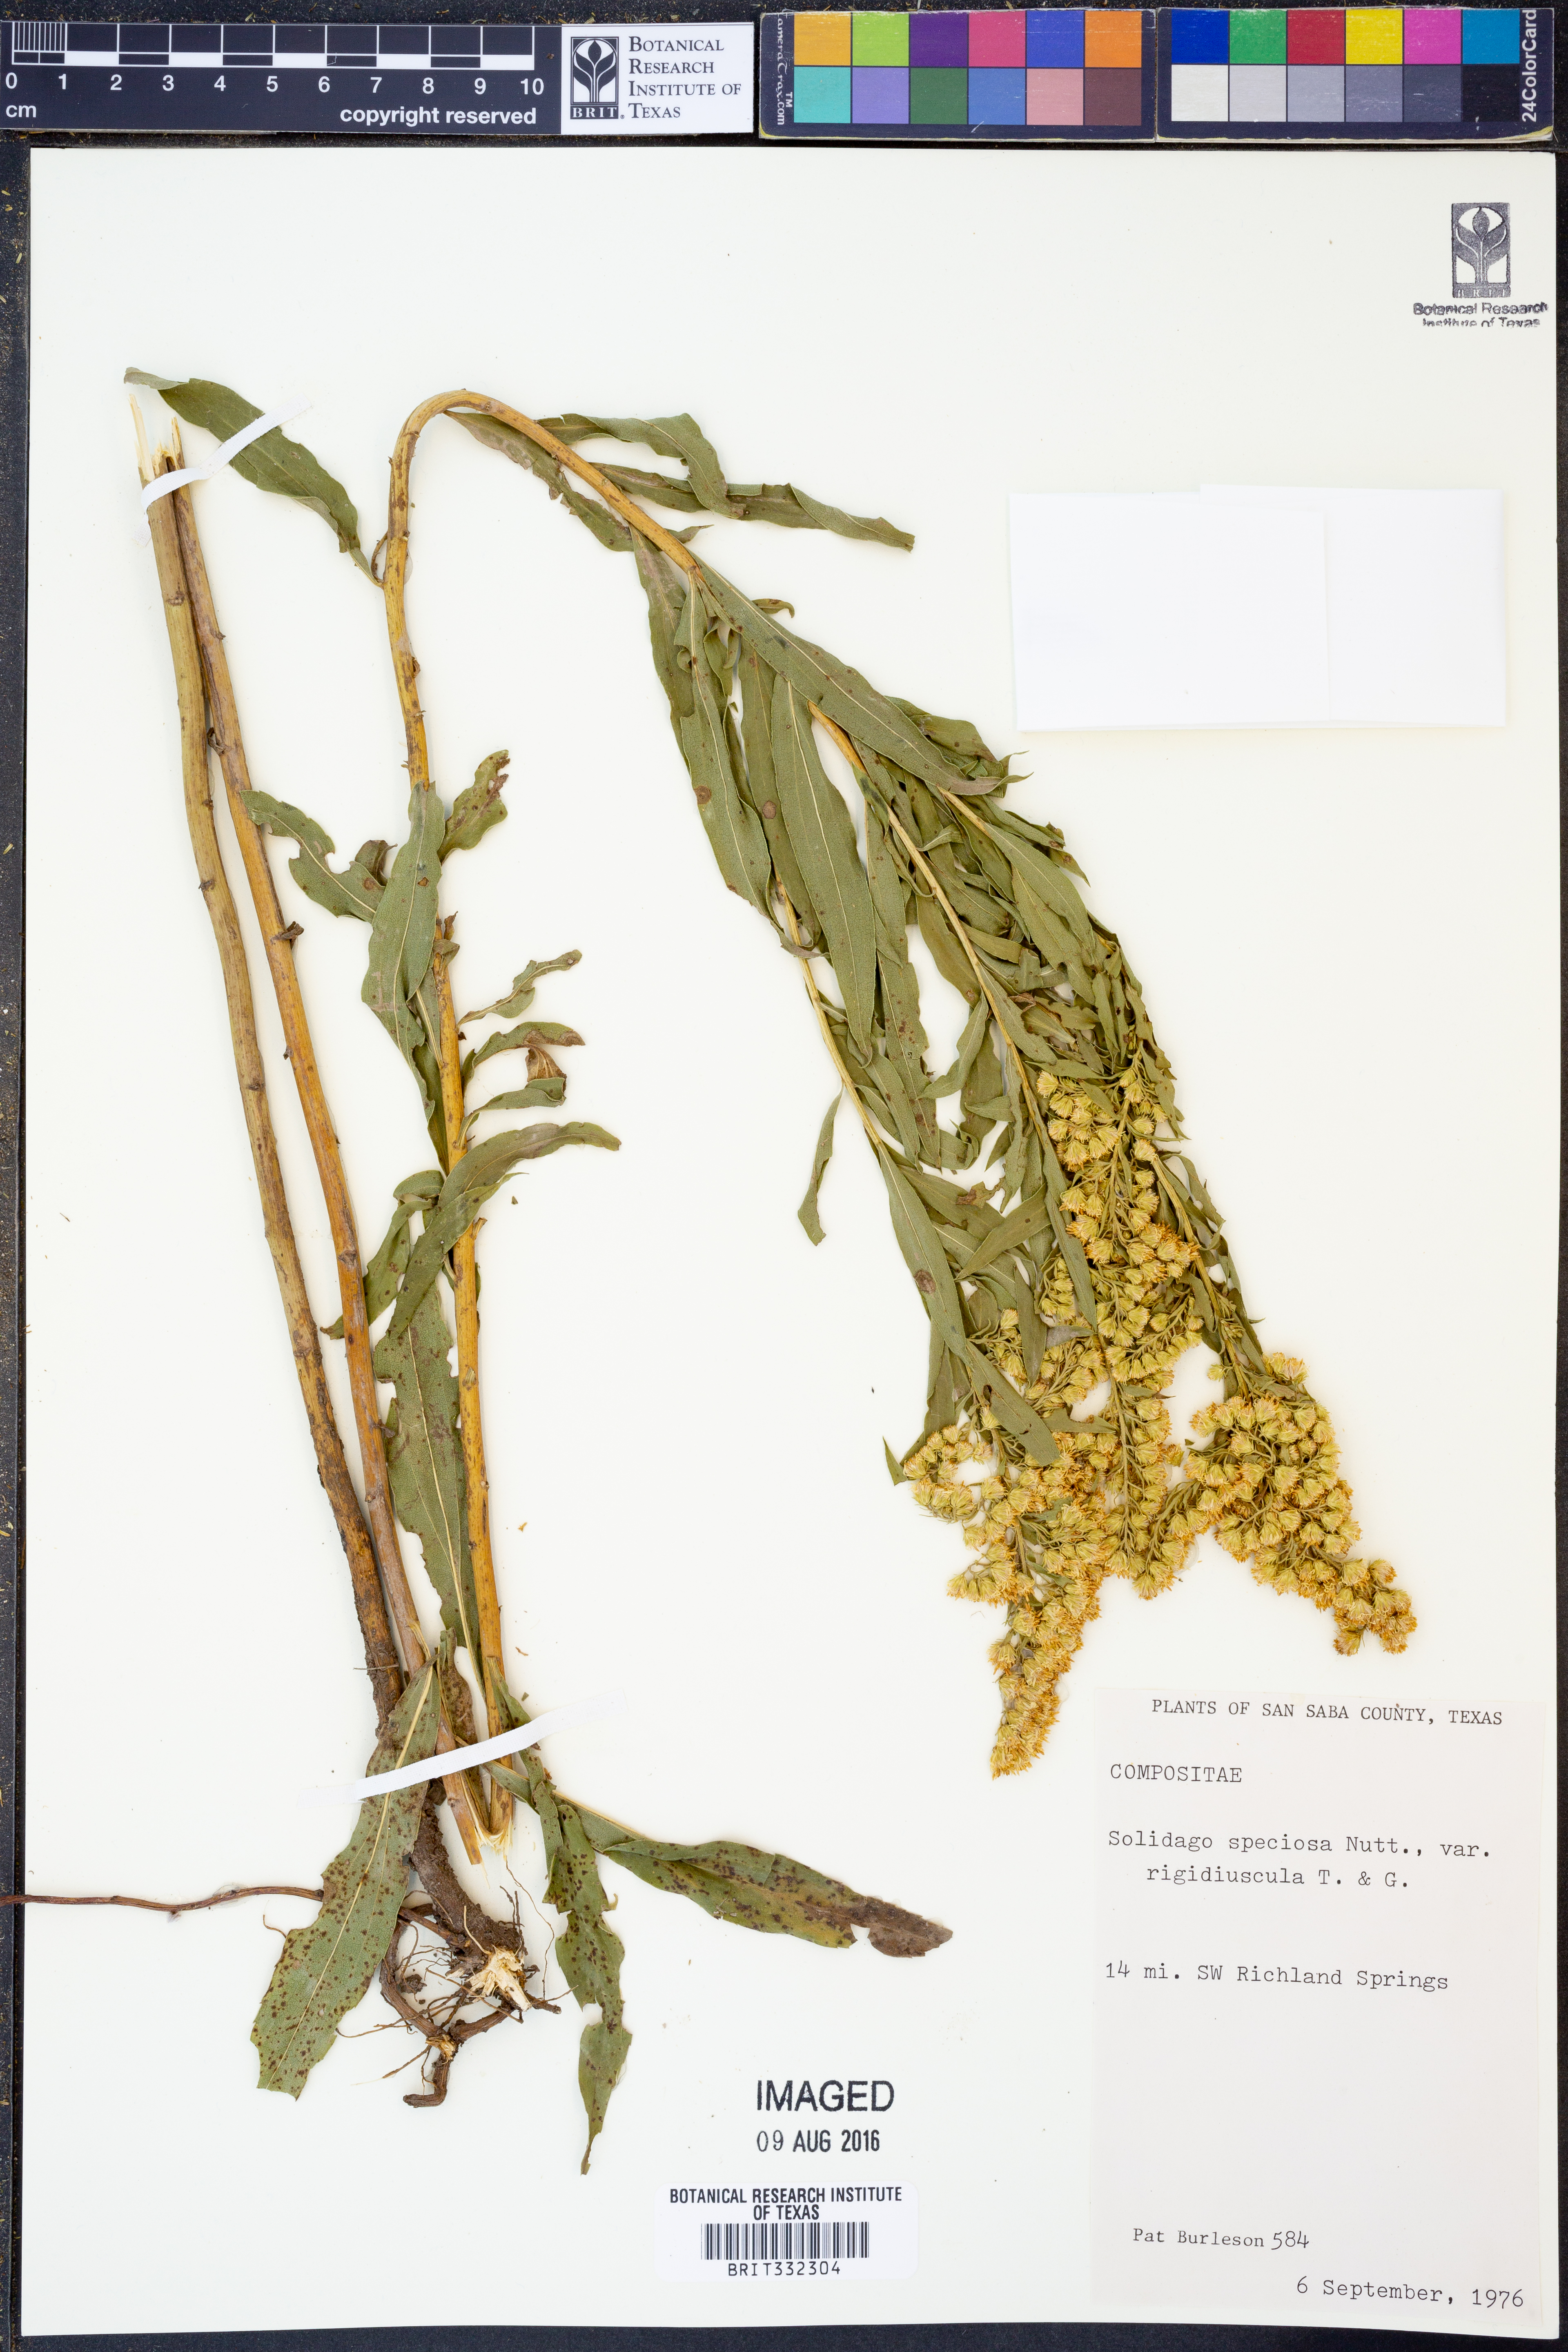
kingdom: Plantae
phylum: Tracheophyta
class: Magnoliopsida
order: Asterales
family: Asteraceae
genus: Solidago
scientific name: Solidago gigantea
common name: Giant goldenrod
